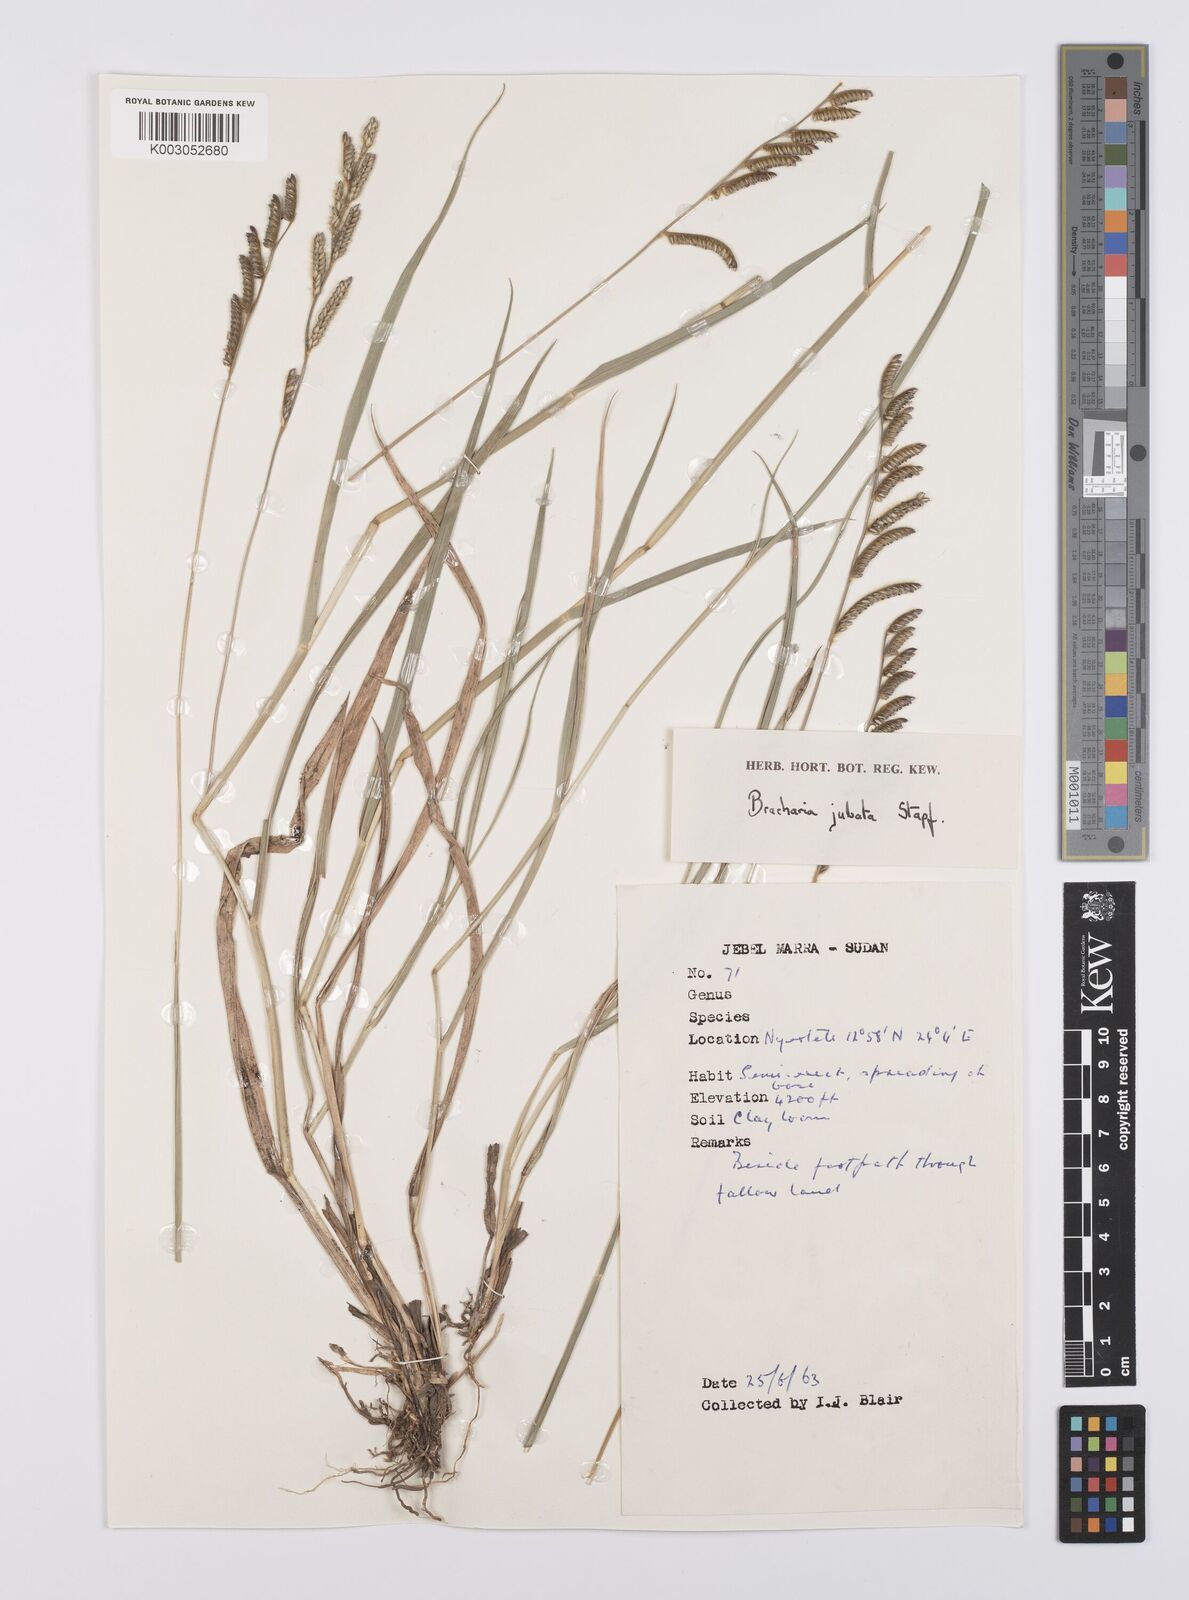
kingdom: Plantae
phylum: Tracheophyta
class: Liliopsida
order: Poales
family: Poaceae
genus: Urochloa
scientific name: Urochloa jubata
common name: Buffalograss
